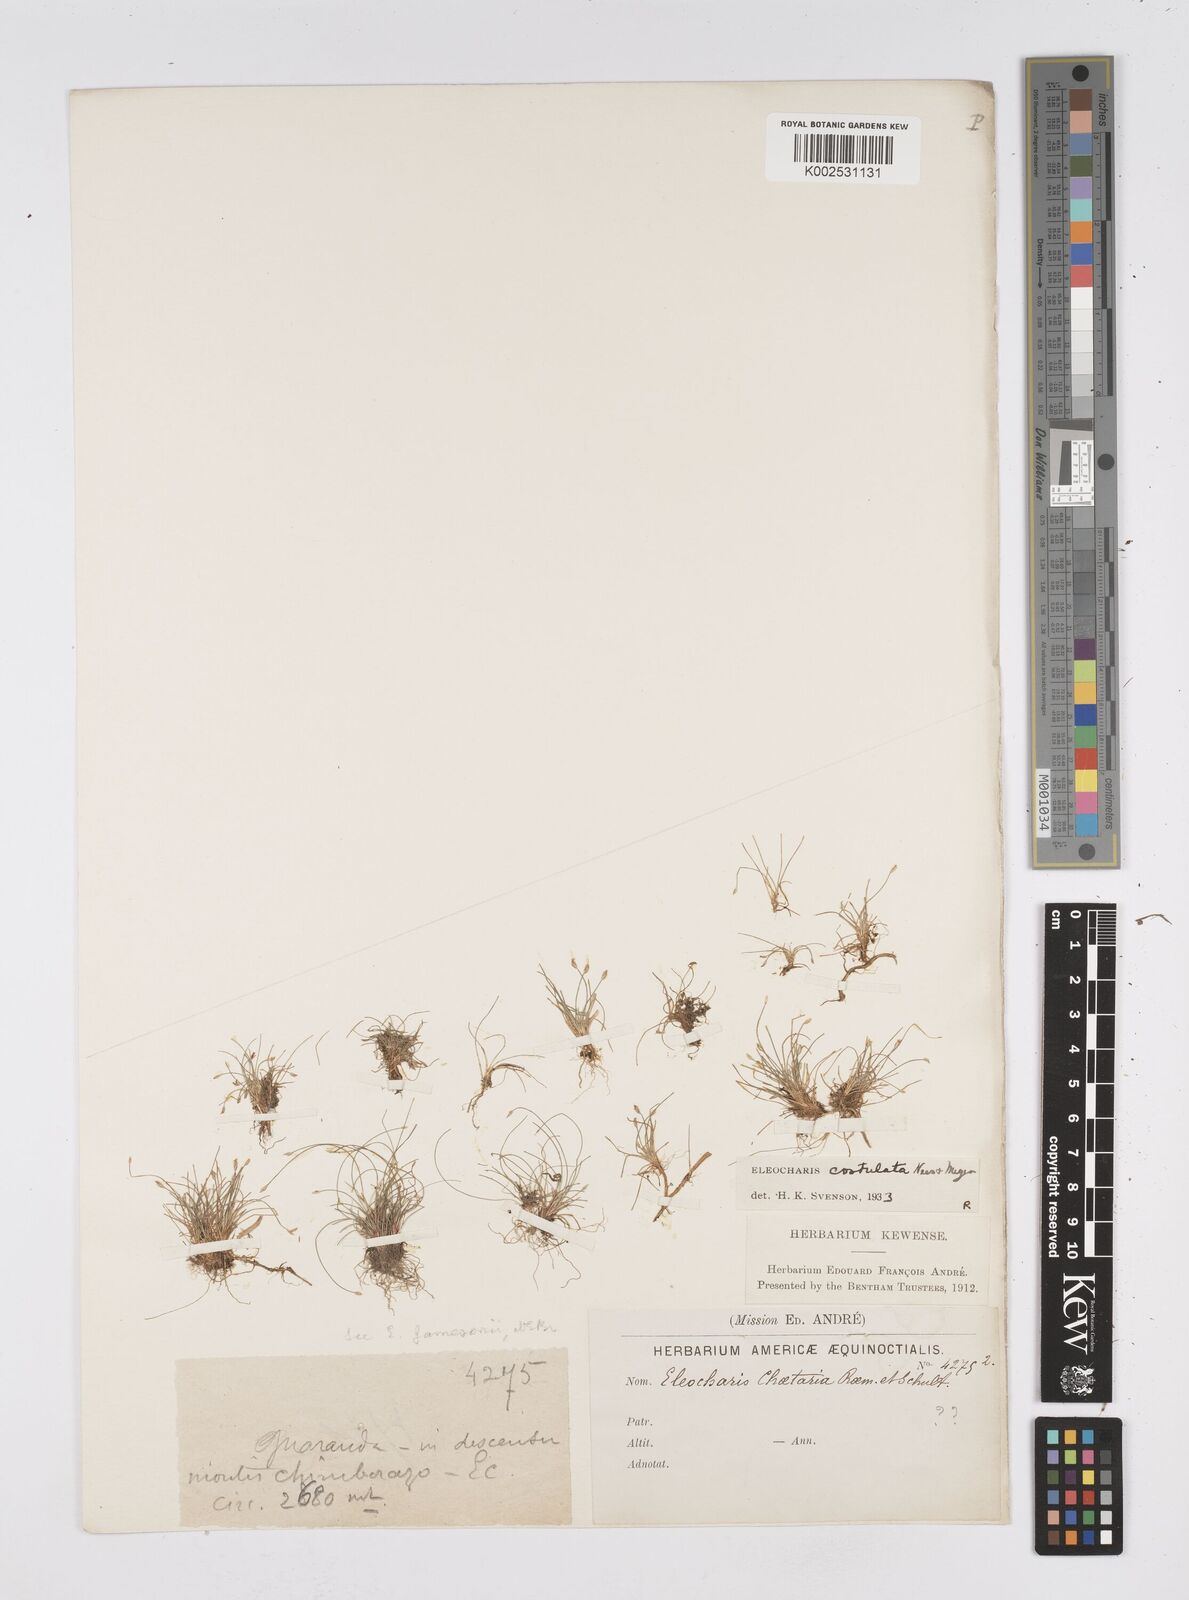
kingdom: Plantae
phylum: Tracheophyta
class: Liliopsida
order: Poales
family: Cyperaceae
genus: Eleocharis
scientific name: Eleocharis exigua
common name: Spikesedge
